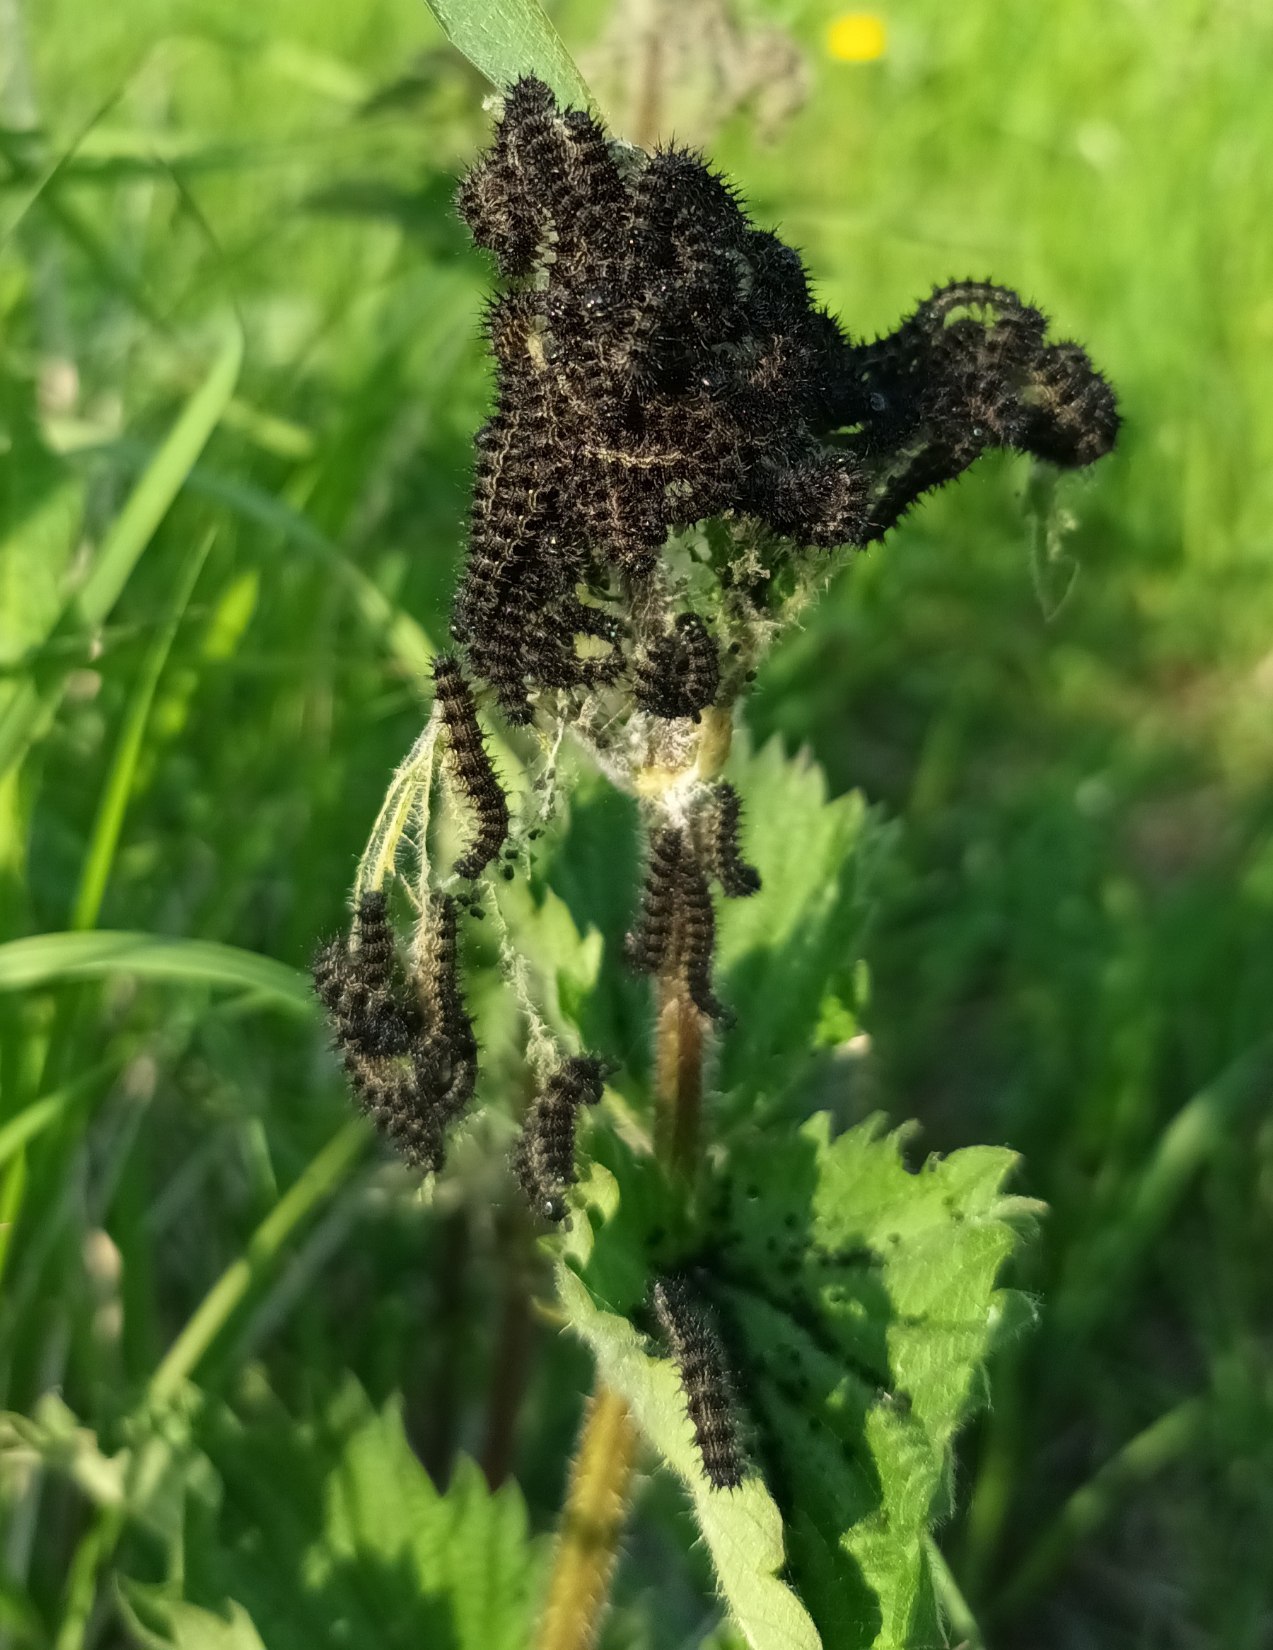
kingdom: Animalia
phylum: Arthropoda
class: Insecta
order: Lepidoptera
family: Nymphalidae
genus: Aglais
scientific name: Aglais io
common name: Dagpåfugleøje
